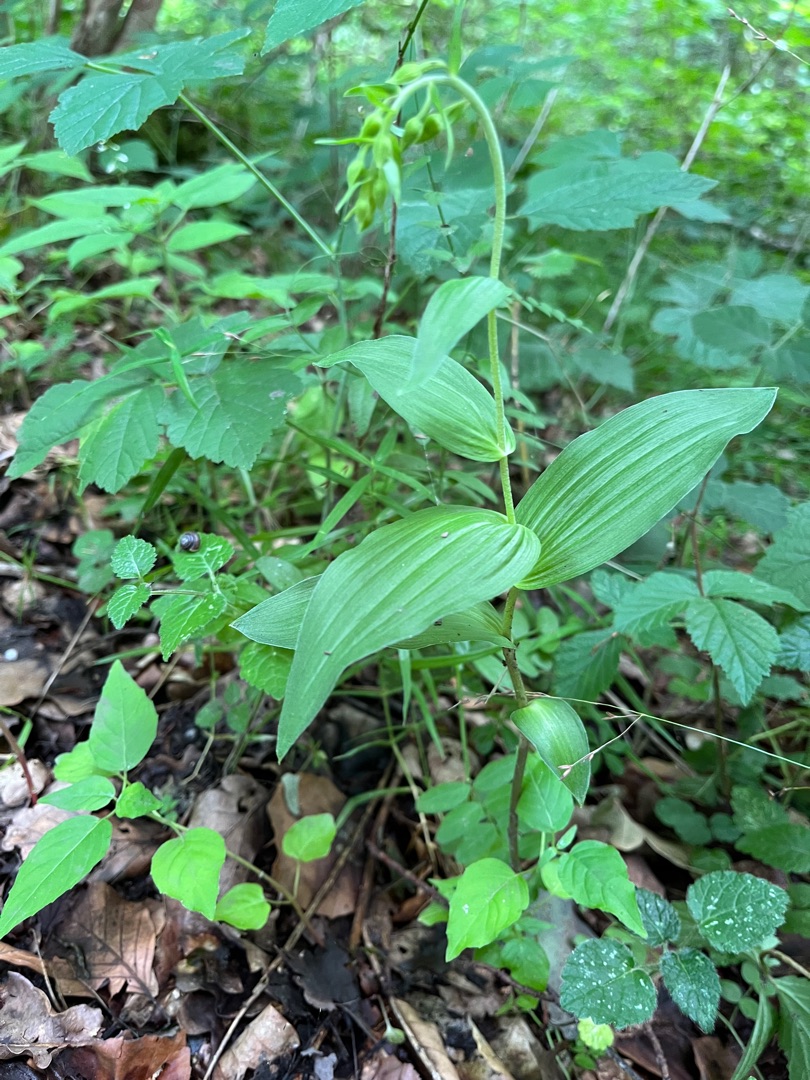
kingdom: Plantae
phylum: Tracheophyta
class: Liliopsida
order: Asparagales
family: Orchidaceae
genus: Epipactis
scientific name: Epipactis helleborine
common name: Skov-hullæbe
